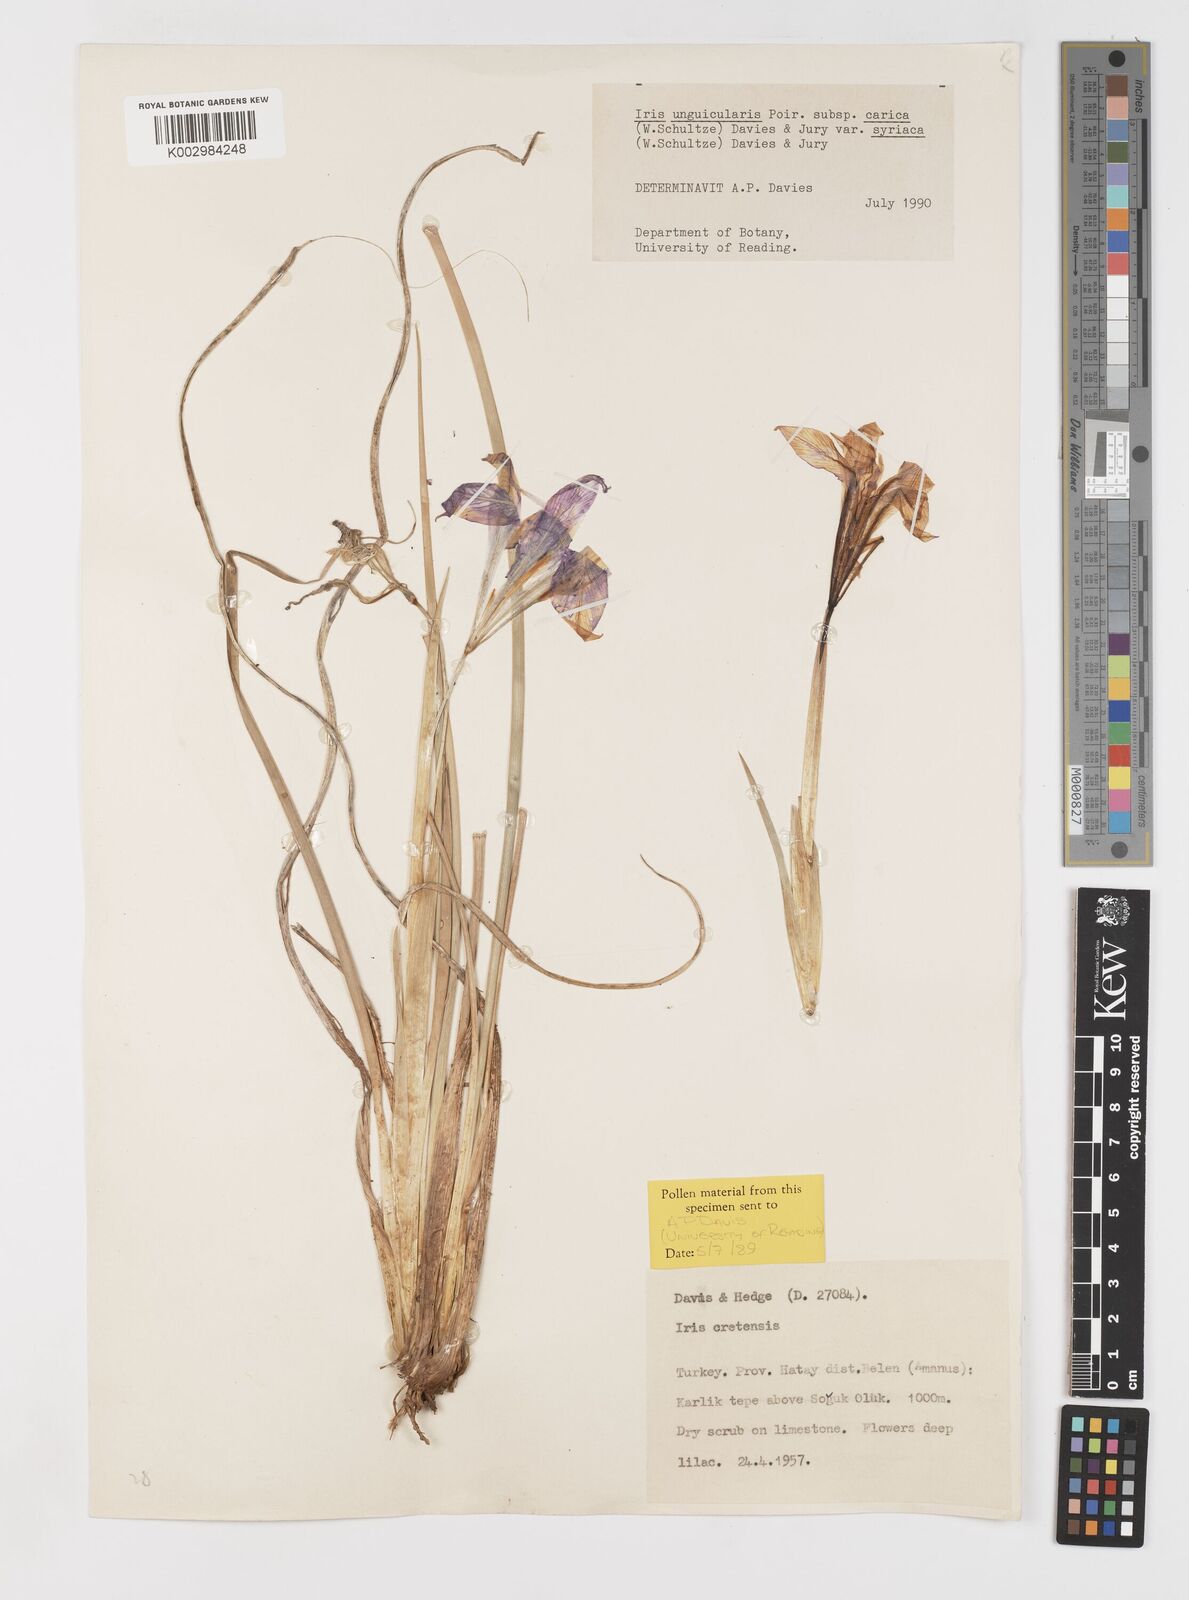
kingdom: Plantae
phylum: Tracheophyta
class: Liliopsida
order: Asparagales
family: Iridaceae
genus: Iris
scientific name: Iris unguicularis
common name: Algerian iris
